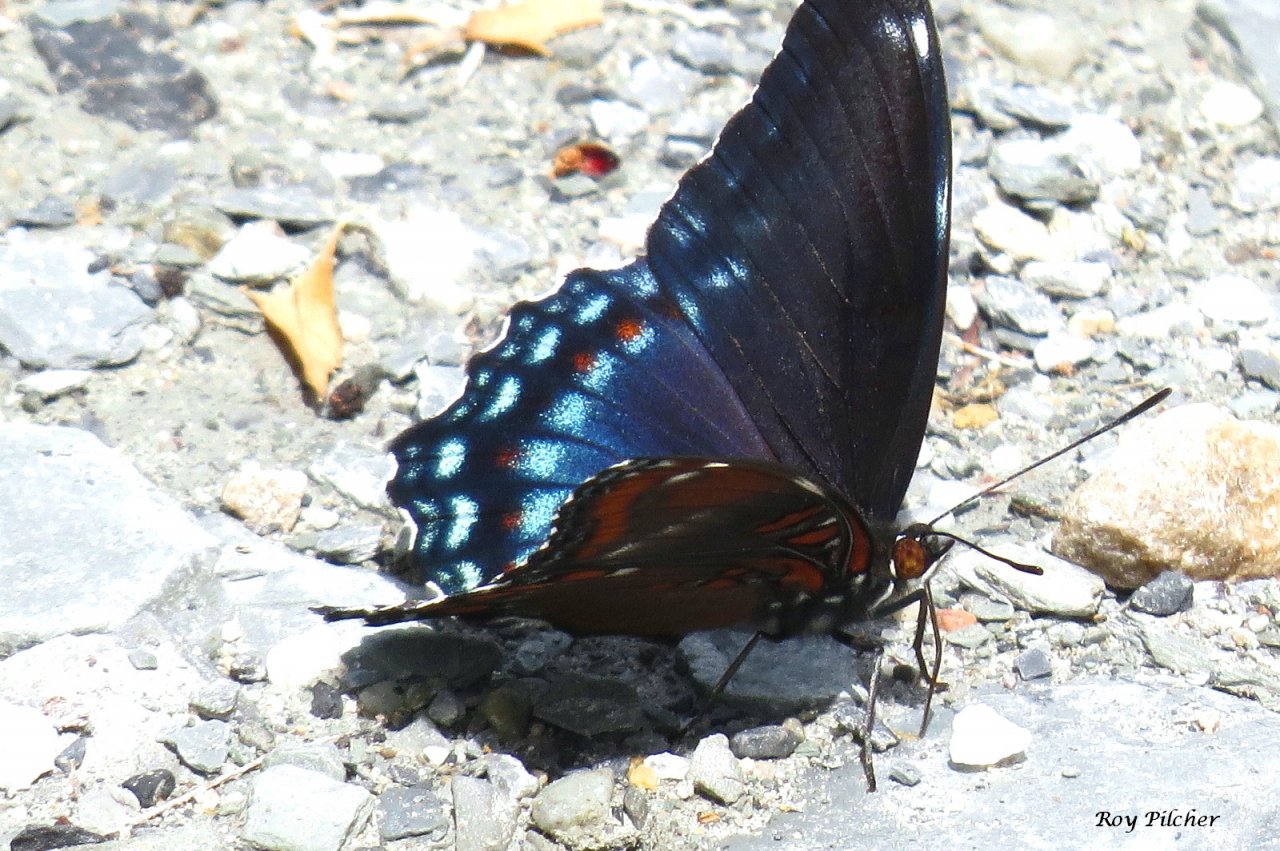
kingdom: Animalia
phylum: Arthropoda
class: Insecta
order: Lepidoptera
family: Nymphalidae
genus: Limenitis
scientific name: Limenitis astyanax
